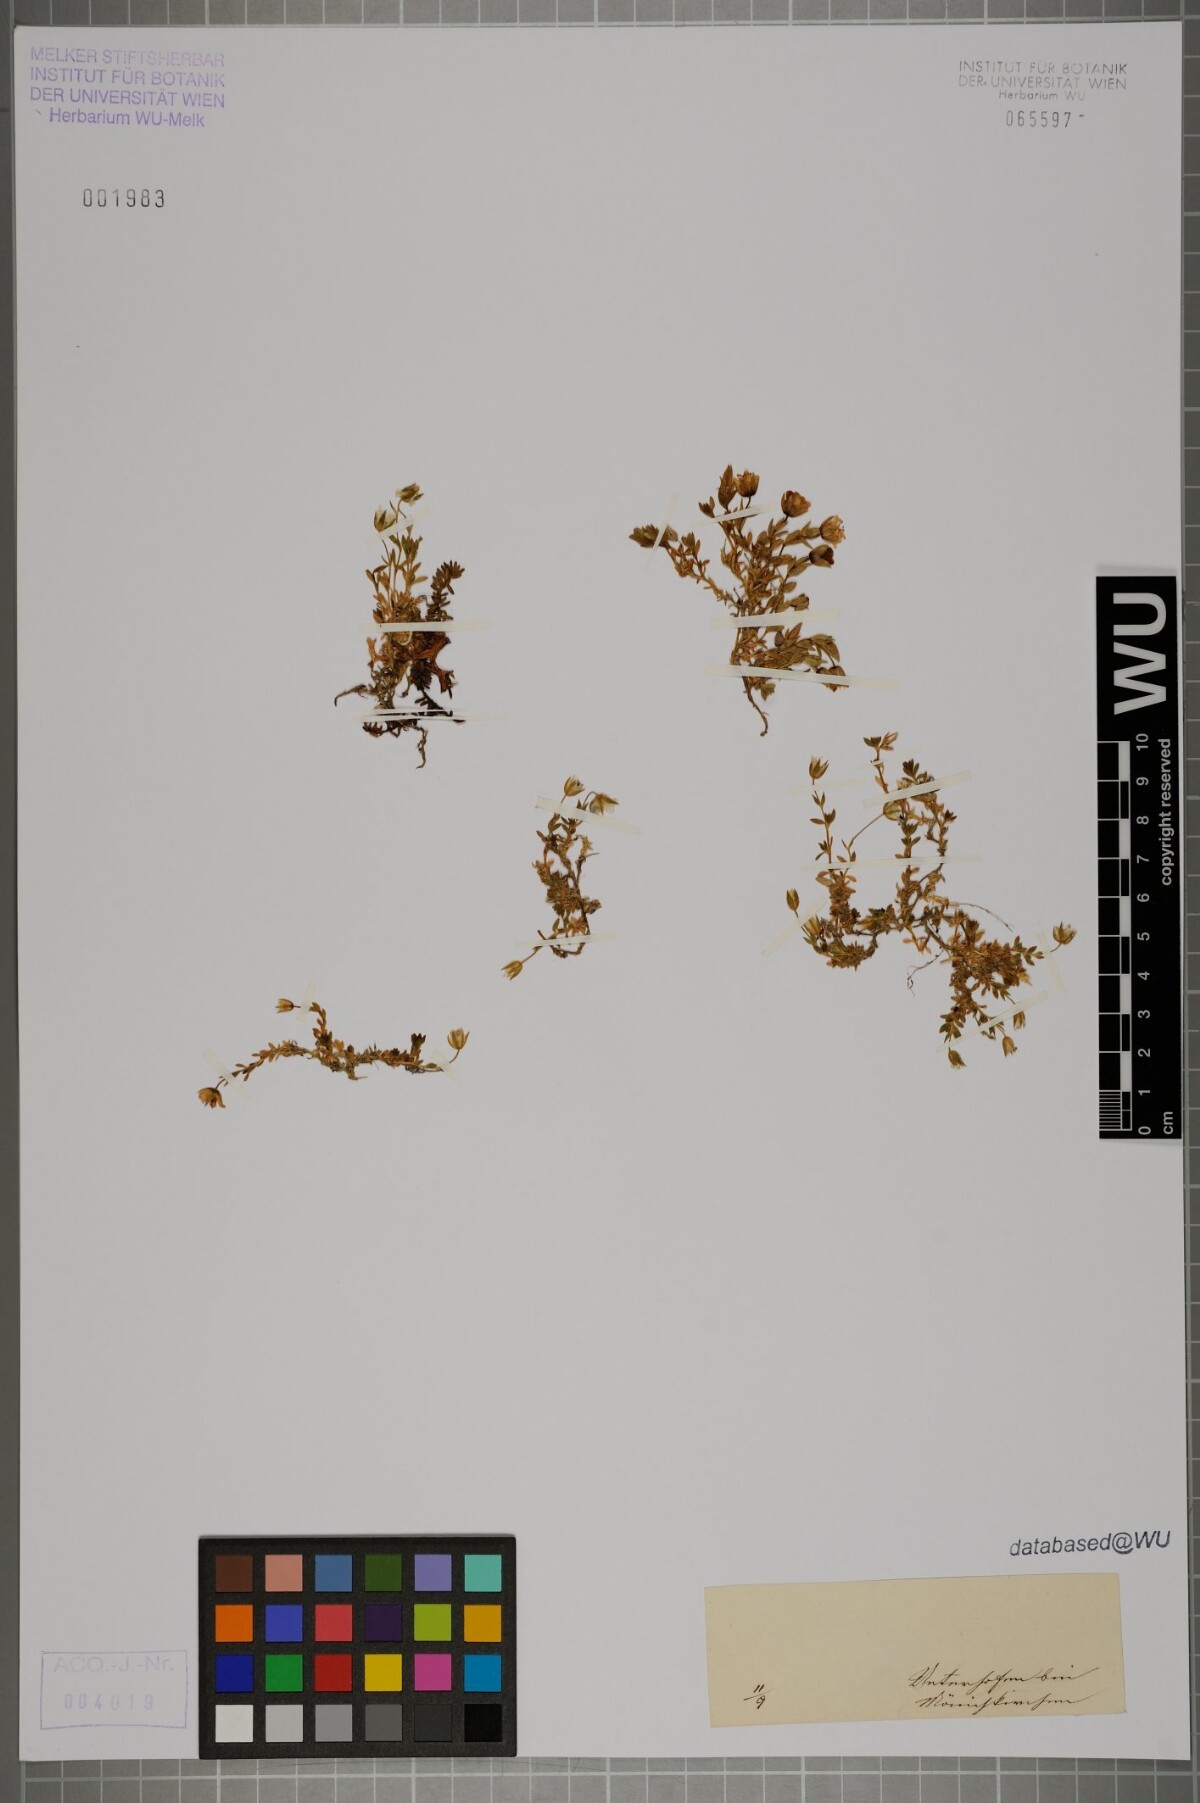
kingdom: Plantae
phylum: Tracheophyta
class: Magnoliopsida
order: Caryophyllales
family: Caryophyllaceae
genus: Cerastium
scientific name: Cerastium
